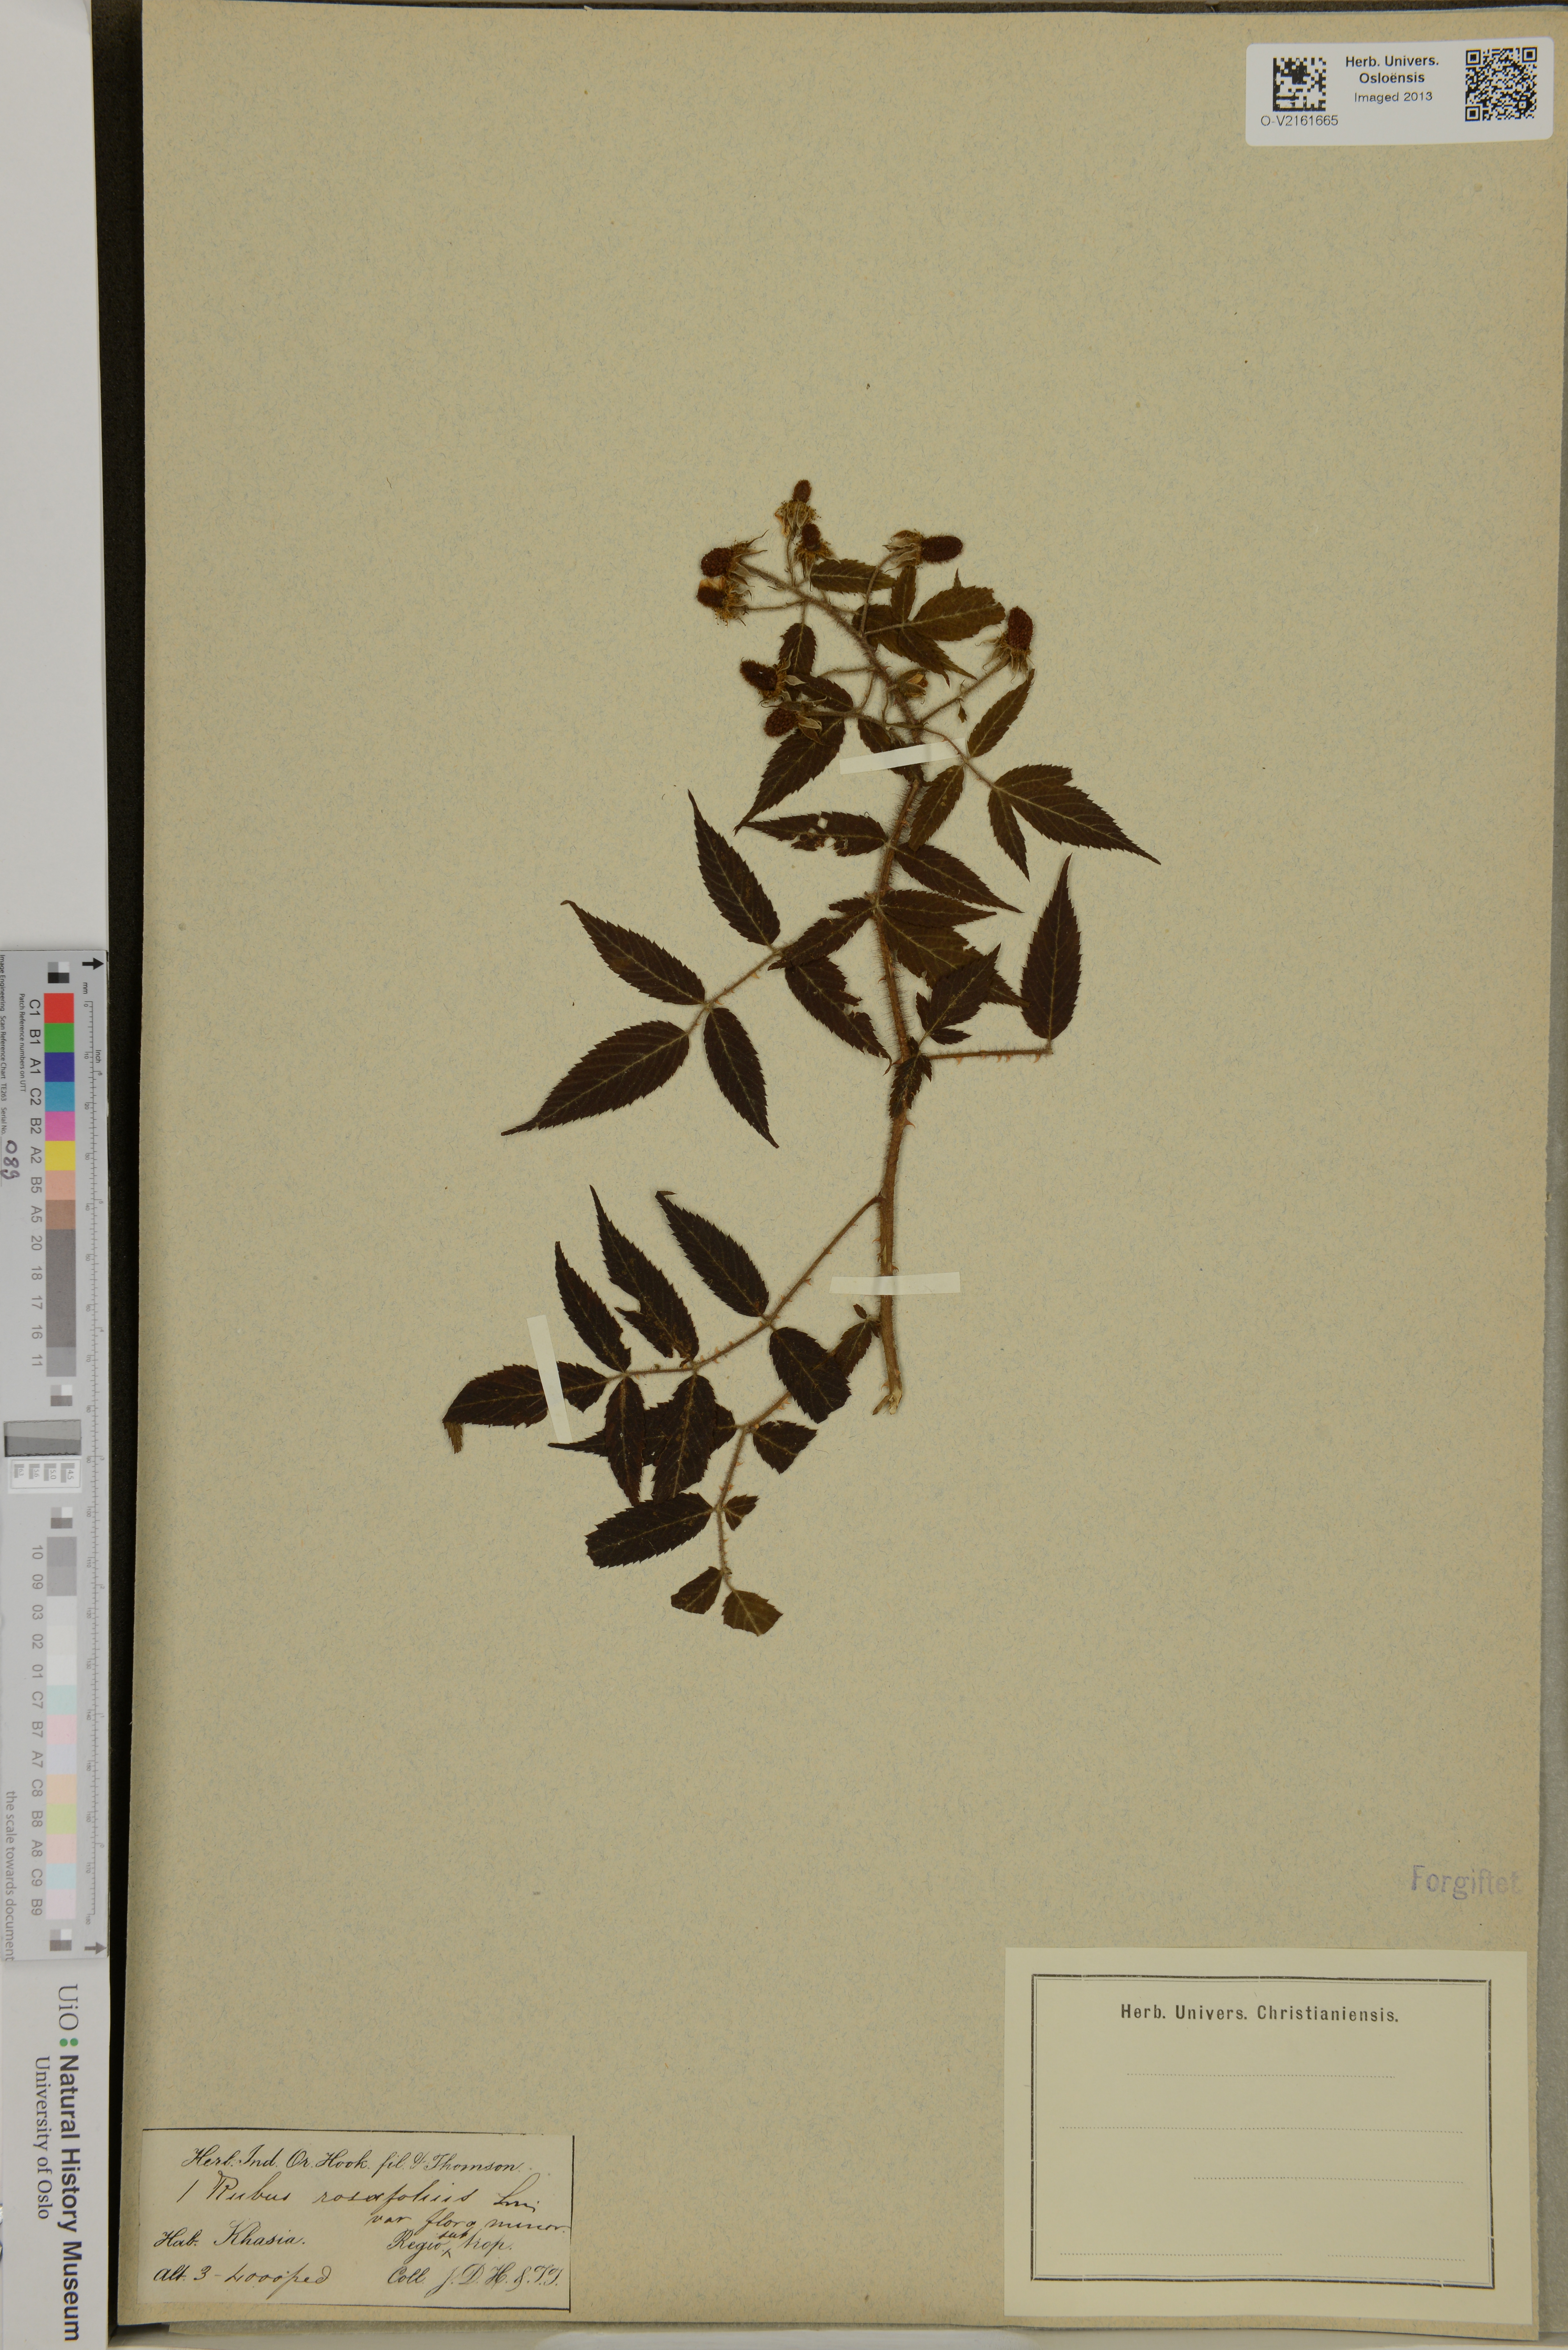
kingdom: Plantae
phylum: Tracheophyta
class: Magnoliopsida
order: Rosales
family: Rosaceae
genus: Rubus
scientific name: Rubus rosifolius
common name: Roseleaf raspberry
